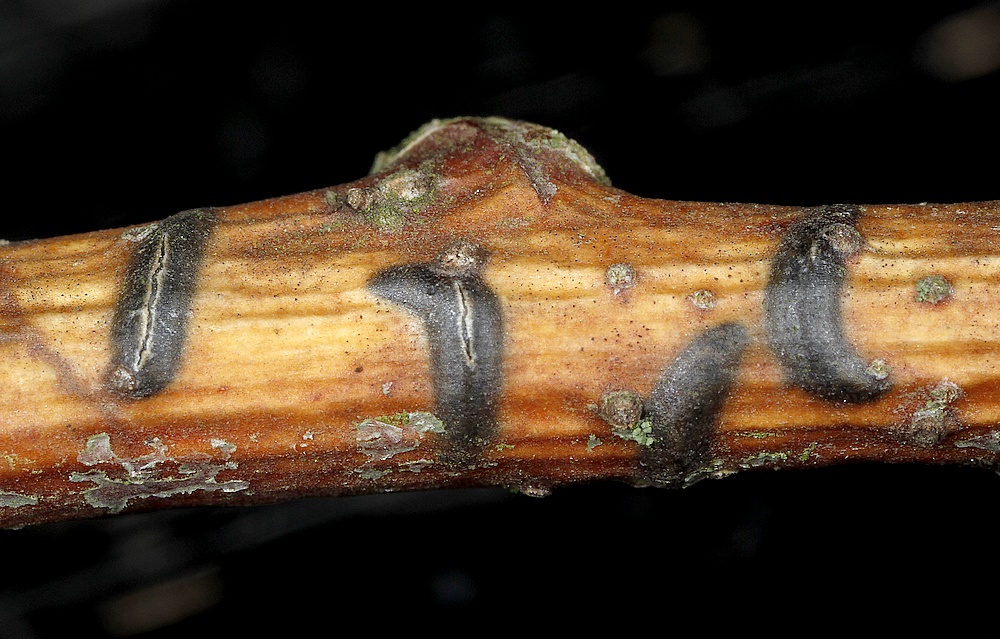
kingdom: Fungi
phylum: Ascomycota
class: Leotiomycetes
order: Rhytismatales
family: Rhytismataceae
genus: Colpoma
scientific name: Colpoma quercinum
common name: ege-sprækkeskive
